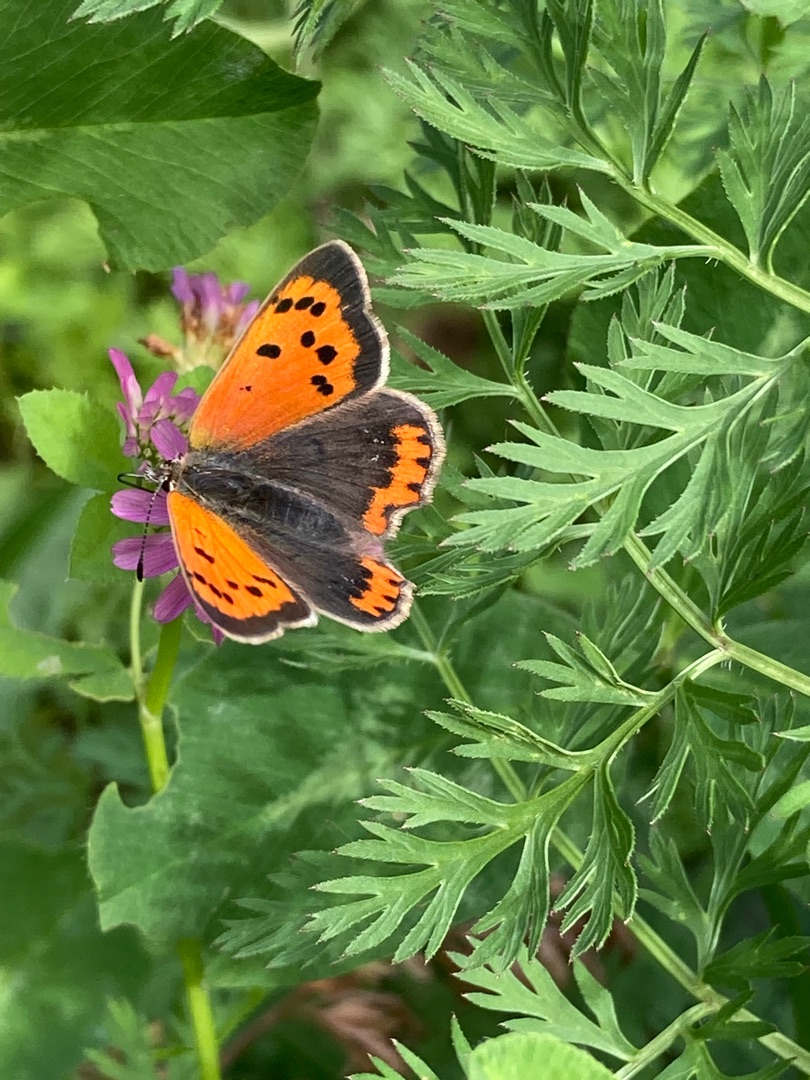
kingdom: Animalia
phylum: Arthropoda
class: Insecta
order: Lepidoptera
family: Lycaenidae
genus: Lycaena
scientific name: Lycaena phlaeas
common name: Lille ildfugl
